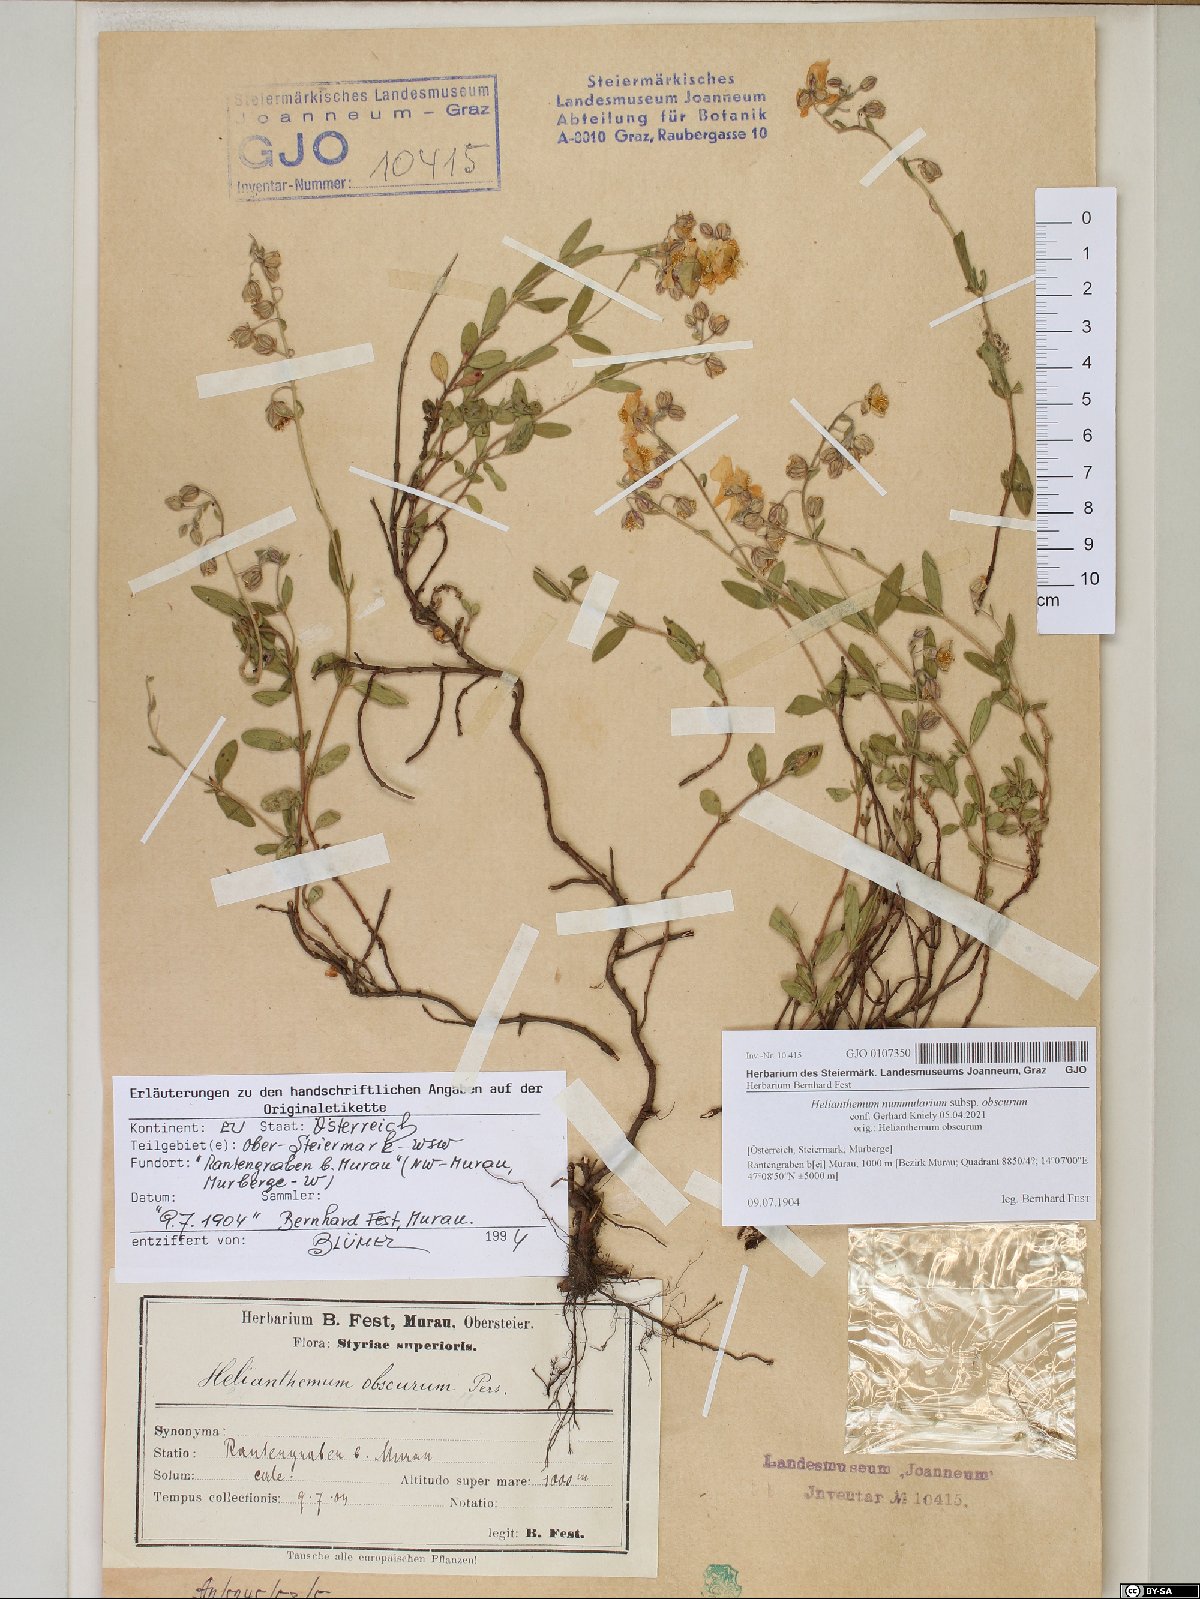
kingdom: Plantae
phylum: Tracheophyta
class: Magnoliopsida
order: Malvales
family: Cistaceae
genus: Helianthemum
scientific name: Helianthemum nummularium
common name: Common rock-rose
